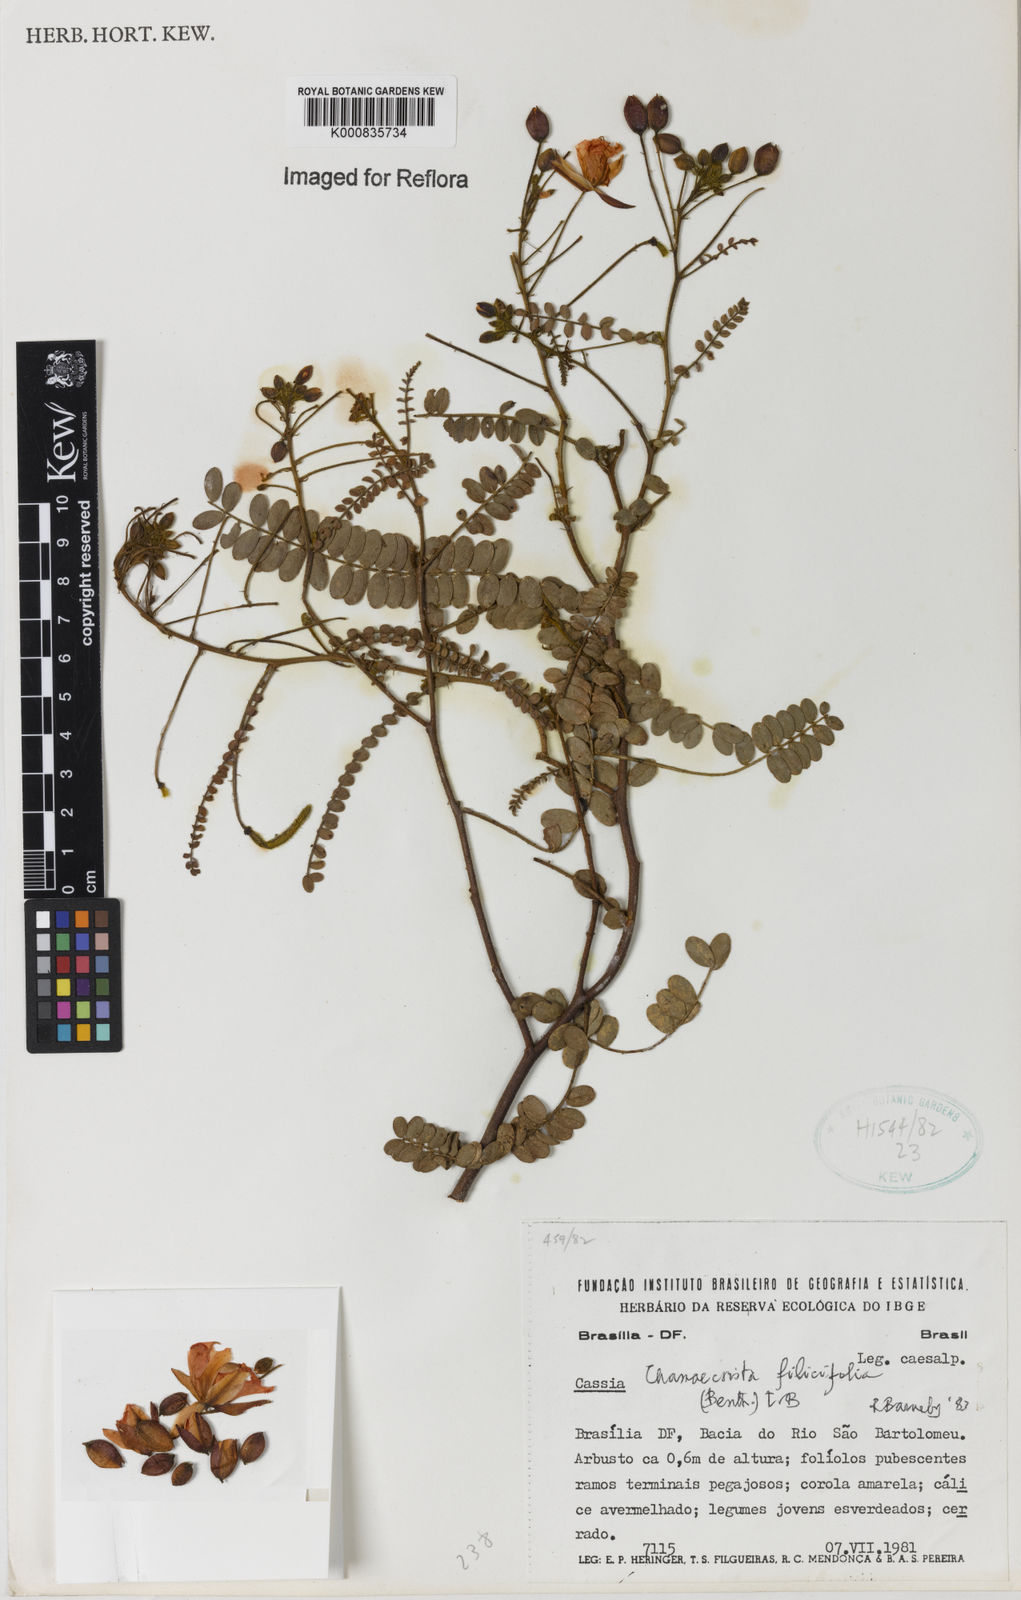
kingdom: Plantae
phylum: Tracheophyta
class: Magnoliopsida
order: Fabales
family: Fabaceae
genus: Chamaecrista
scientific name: Chamaecrista filicifolia
